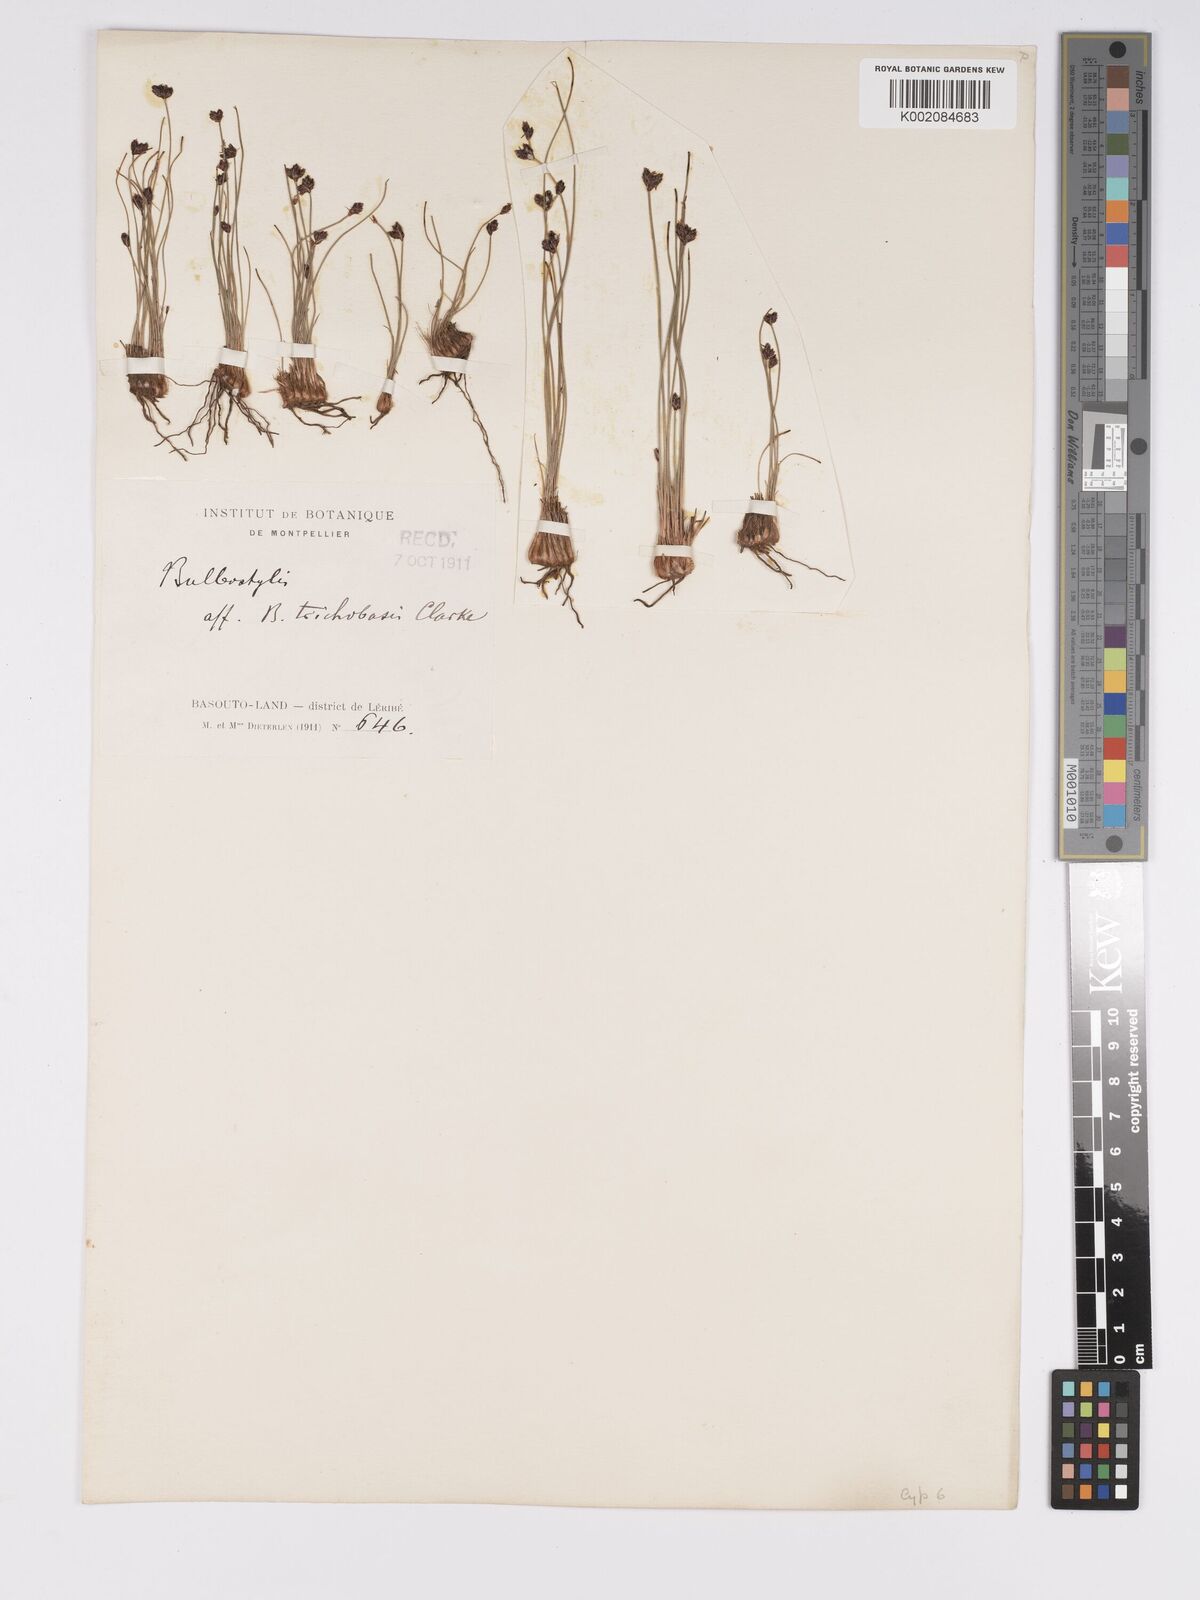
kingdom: Plantae
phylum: Tracheophyta
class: Liliopsida
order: Poales
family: Cyperaceae
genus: Bulbostylis
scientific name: Bulbostylis trichobasis
